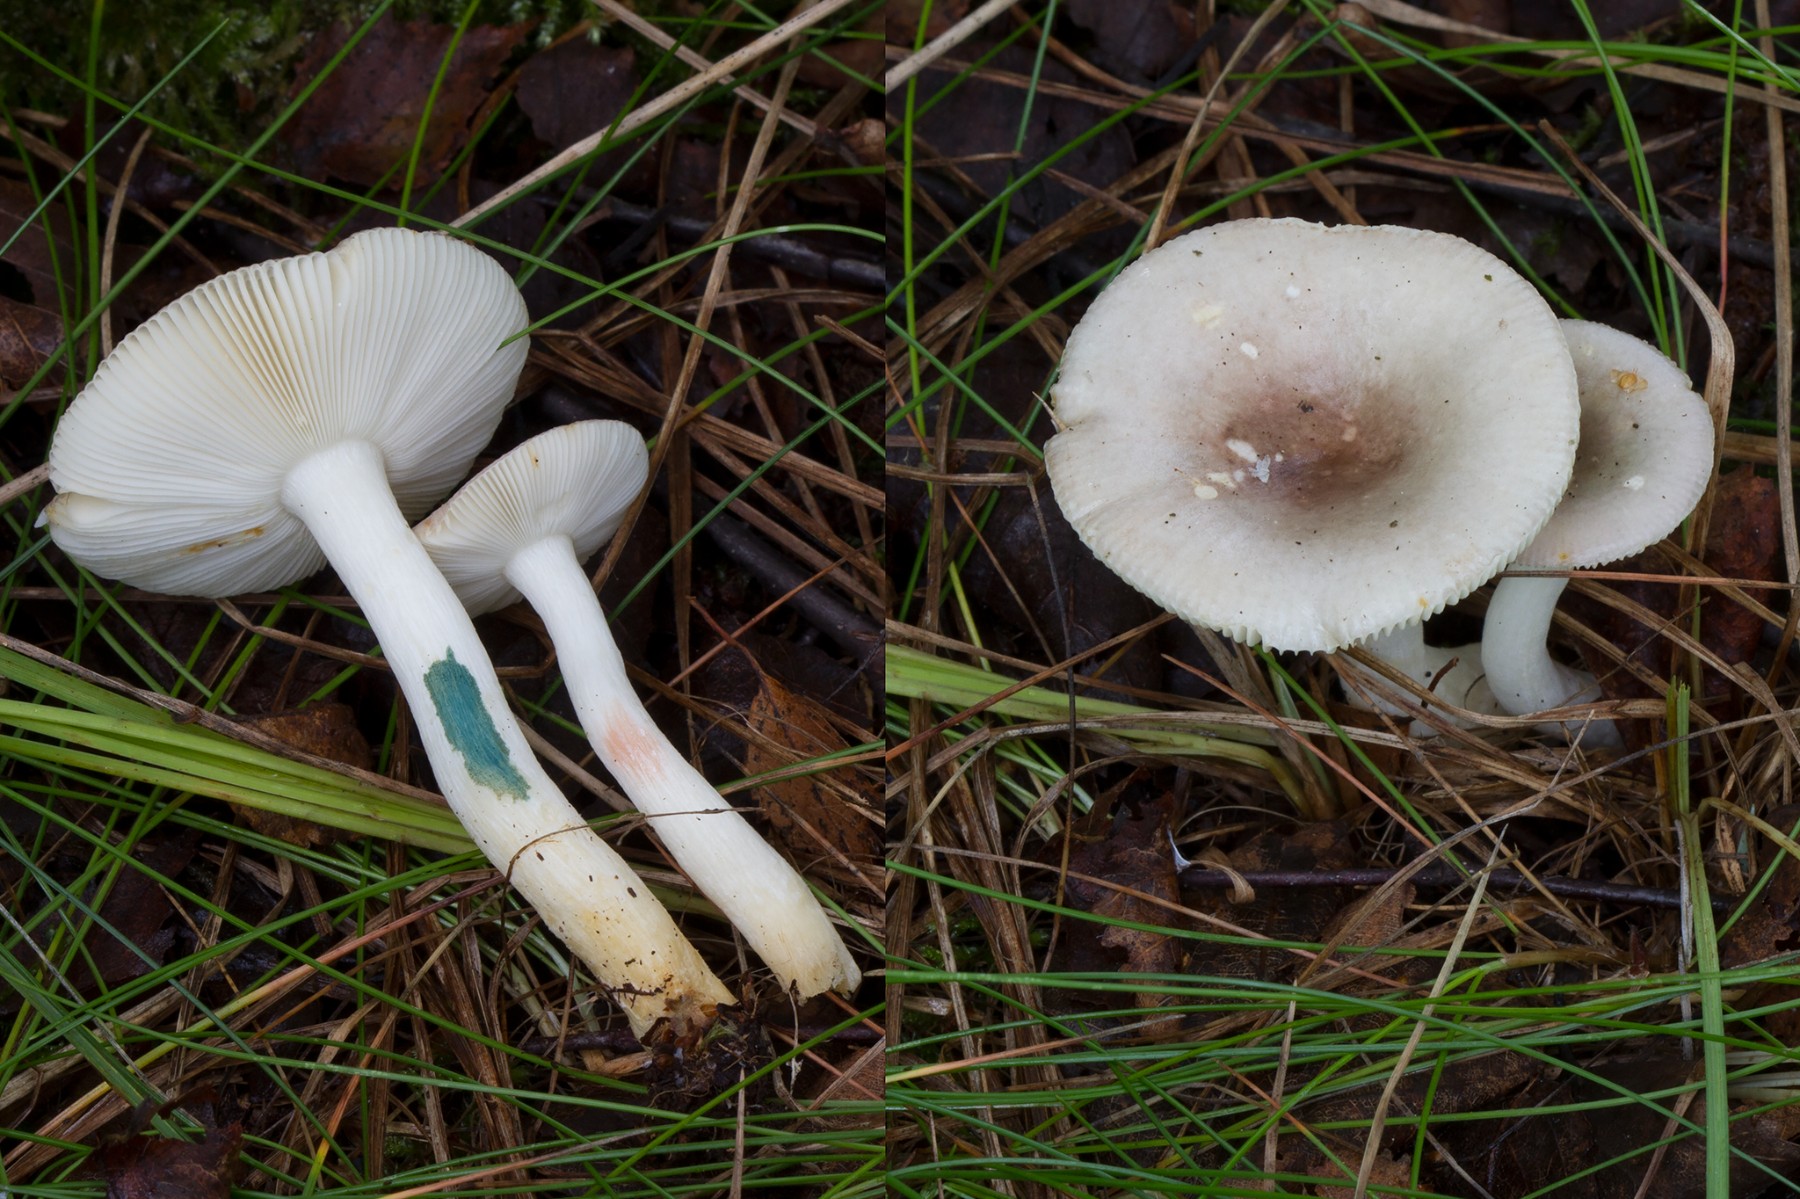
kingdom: Fungi
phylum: Basidiomycota
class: Agaricomycetes
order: Russulales
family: Russulaceae
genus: Russula
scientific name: Russula versicolor
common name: foranderlig skørhat
